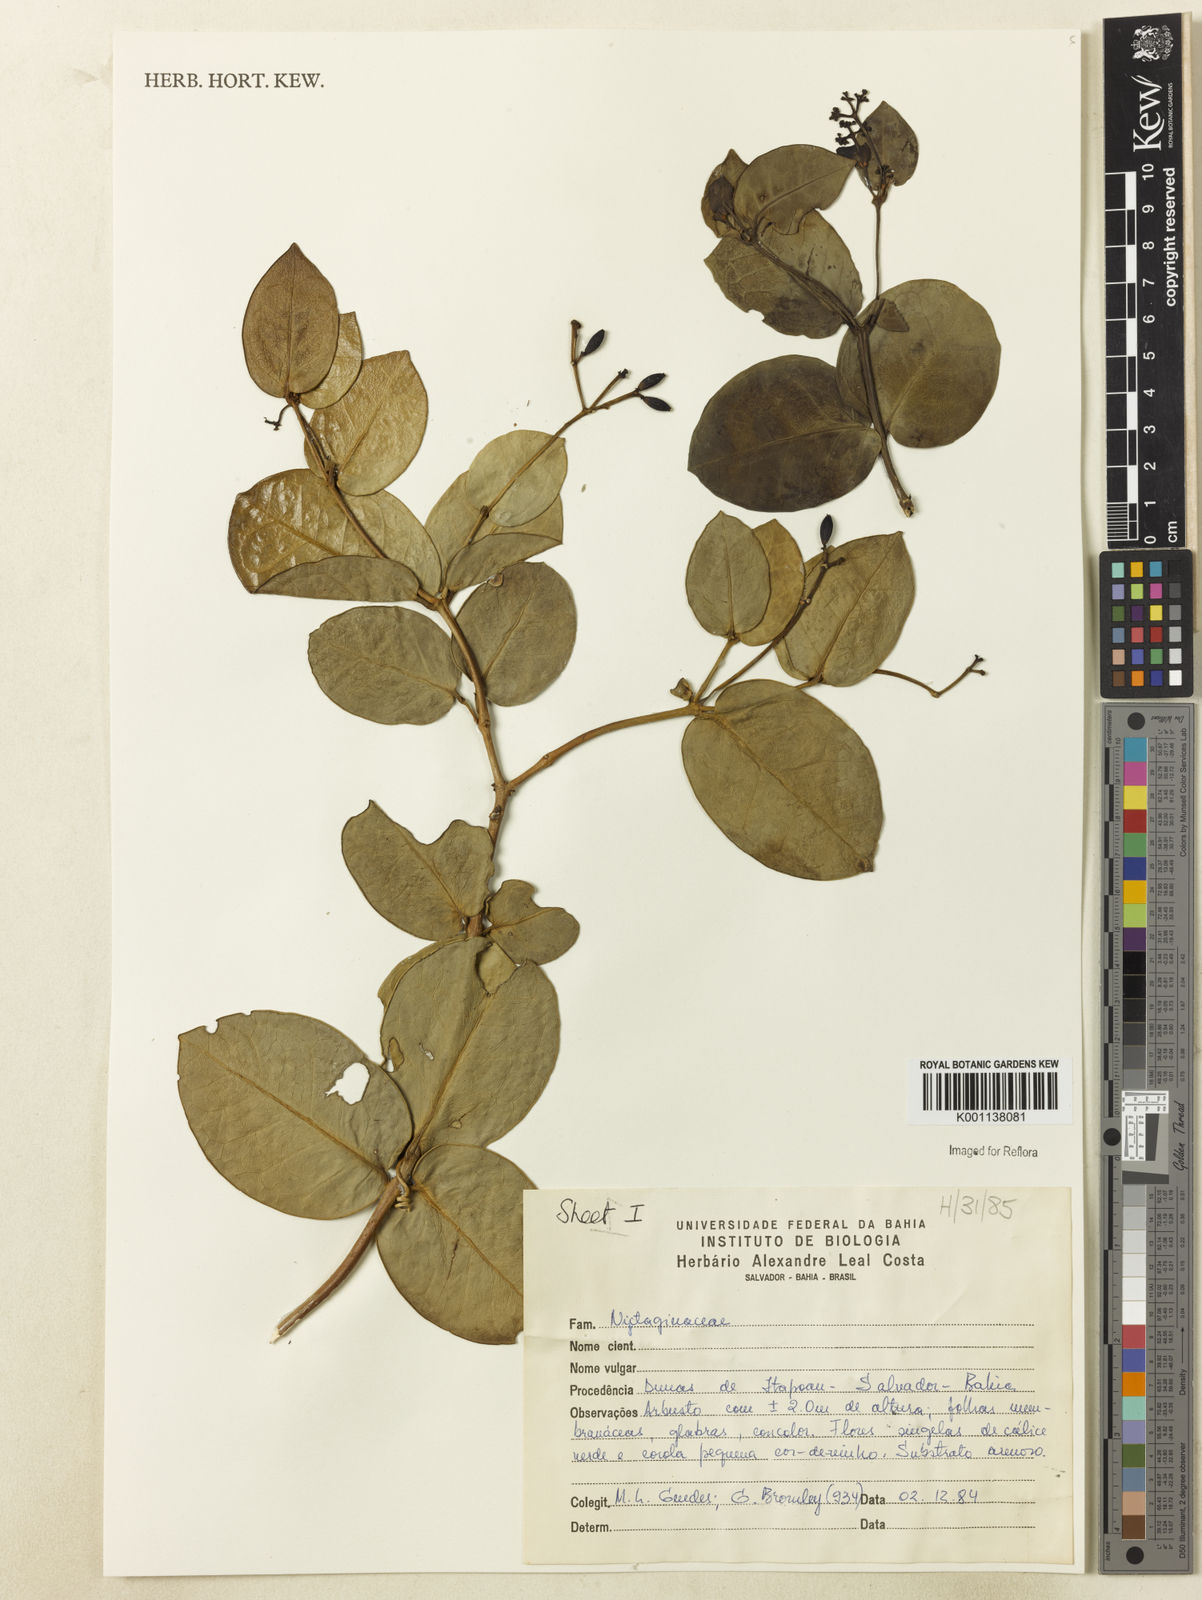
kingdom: Plantae
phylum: Tracheophyta
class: Magnoliopsida
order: Caryophyllales
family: Nyctaginaceae
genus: Neea
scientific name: Neea
